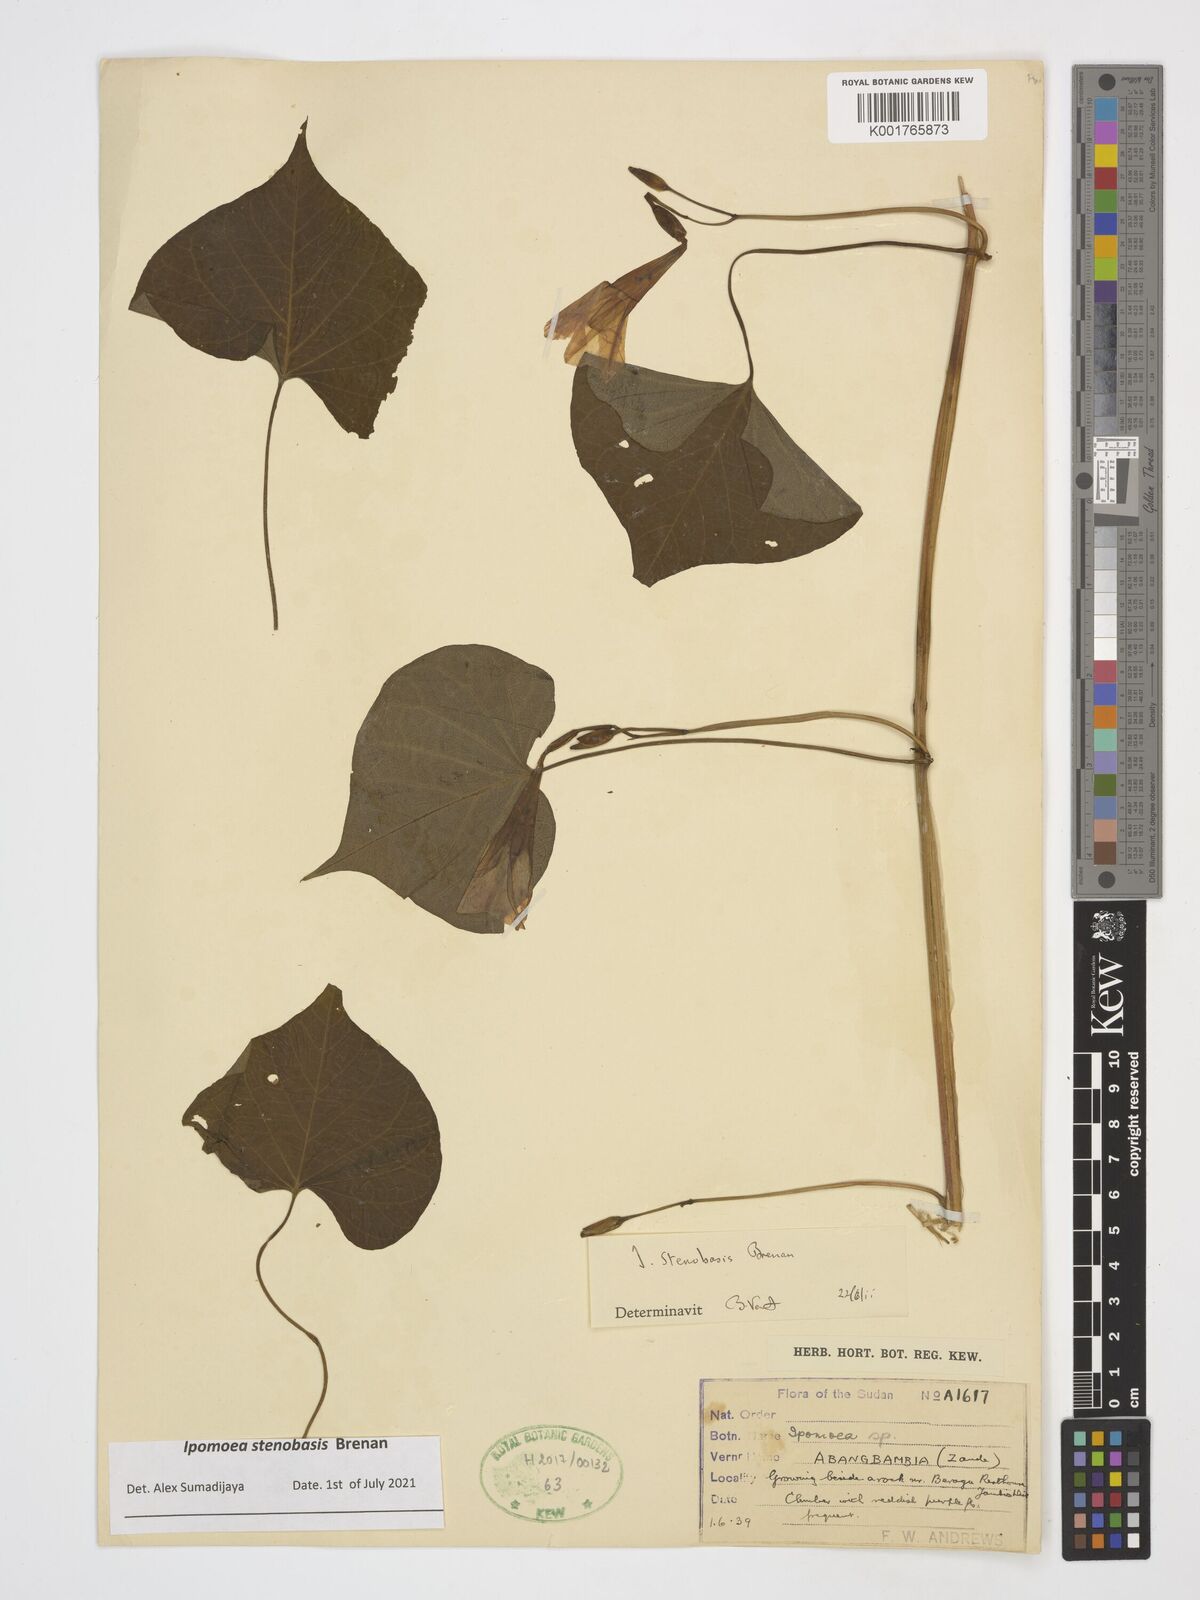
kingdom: Plantae
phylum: Tracheophyta
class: Magnoliopsida
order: Solanales
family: Convolvulaceae
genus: Ipomoea
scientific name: Ipomoea stenobasis
